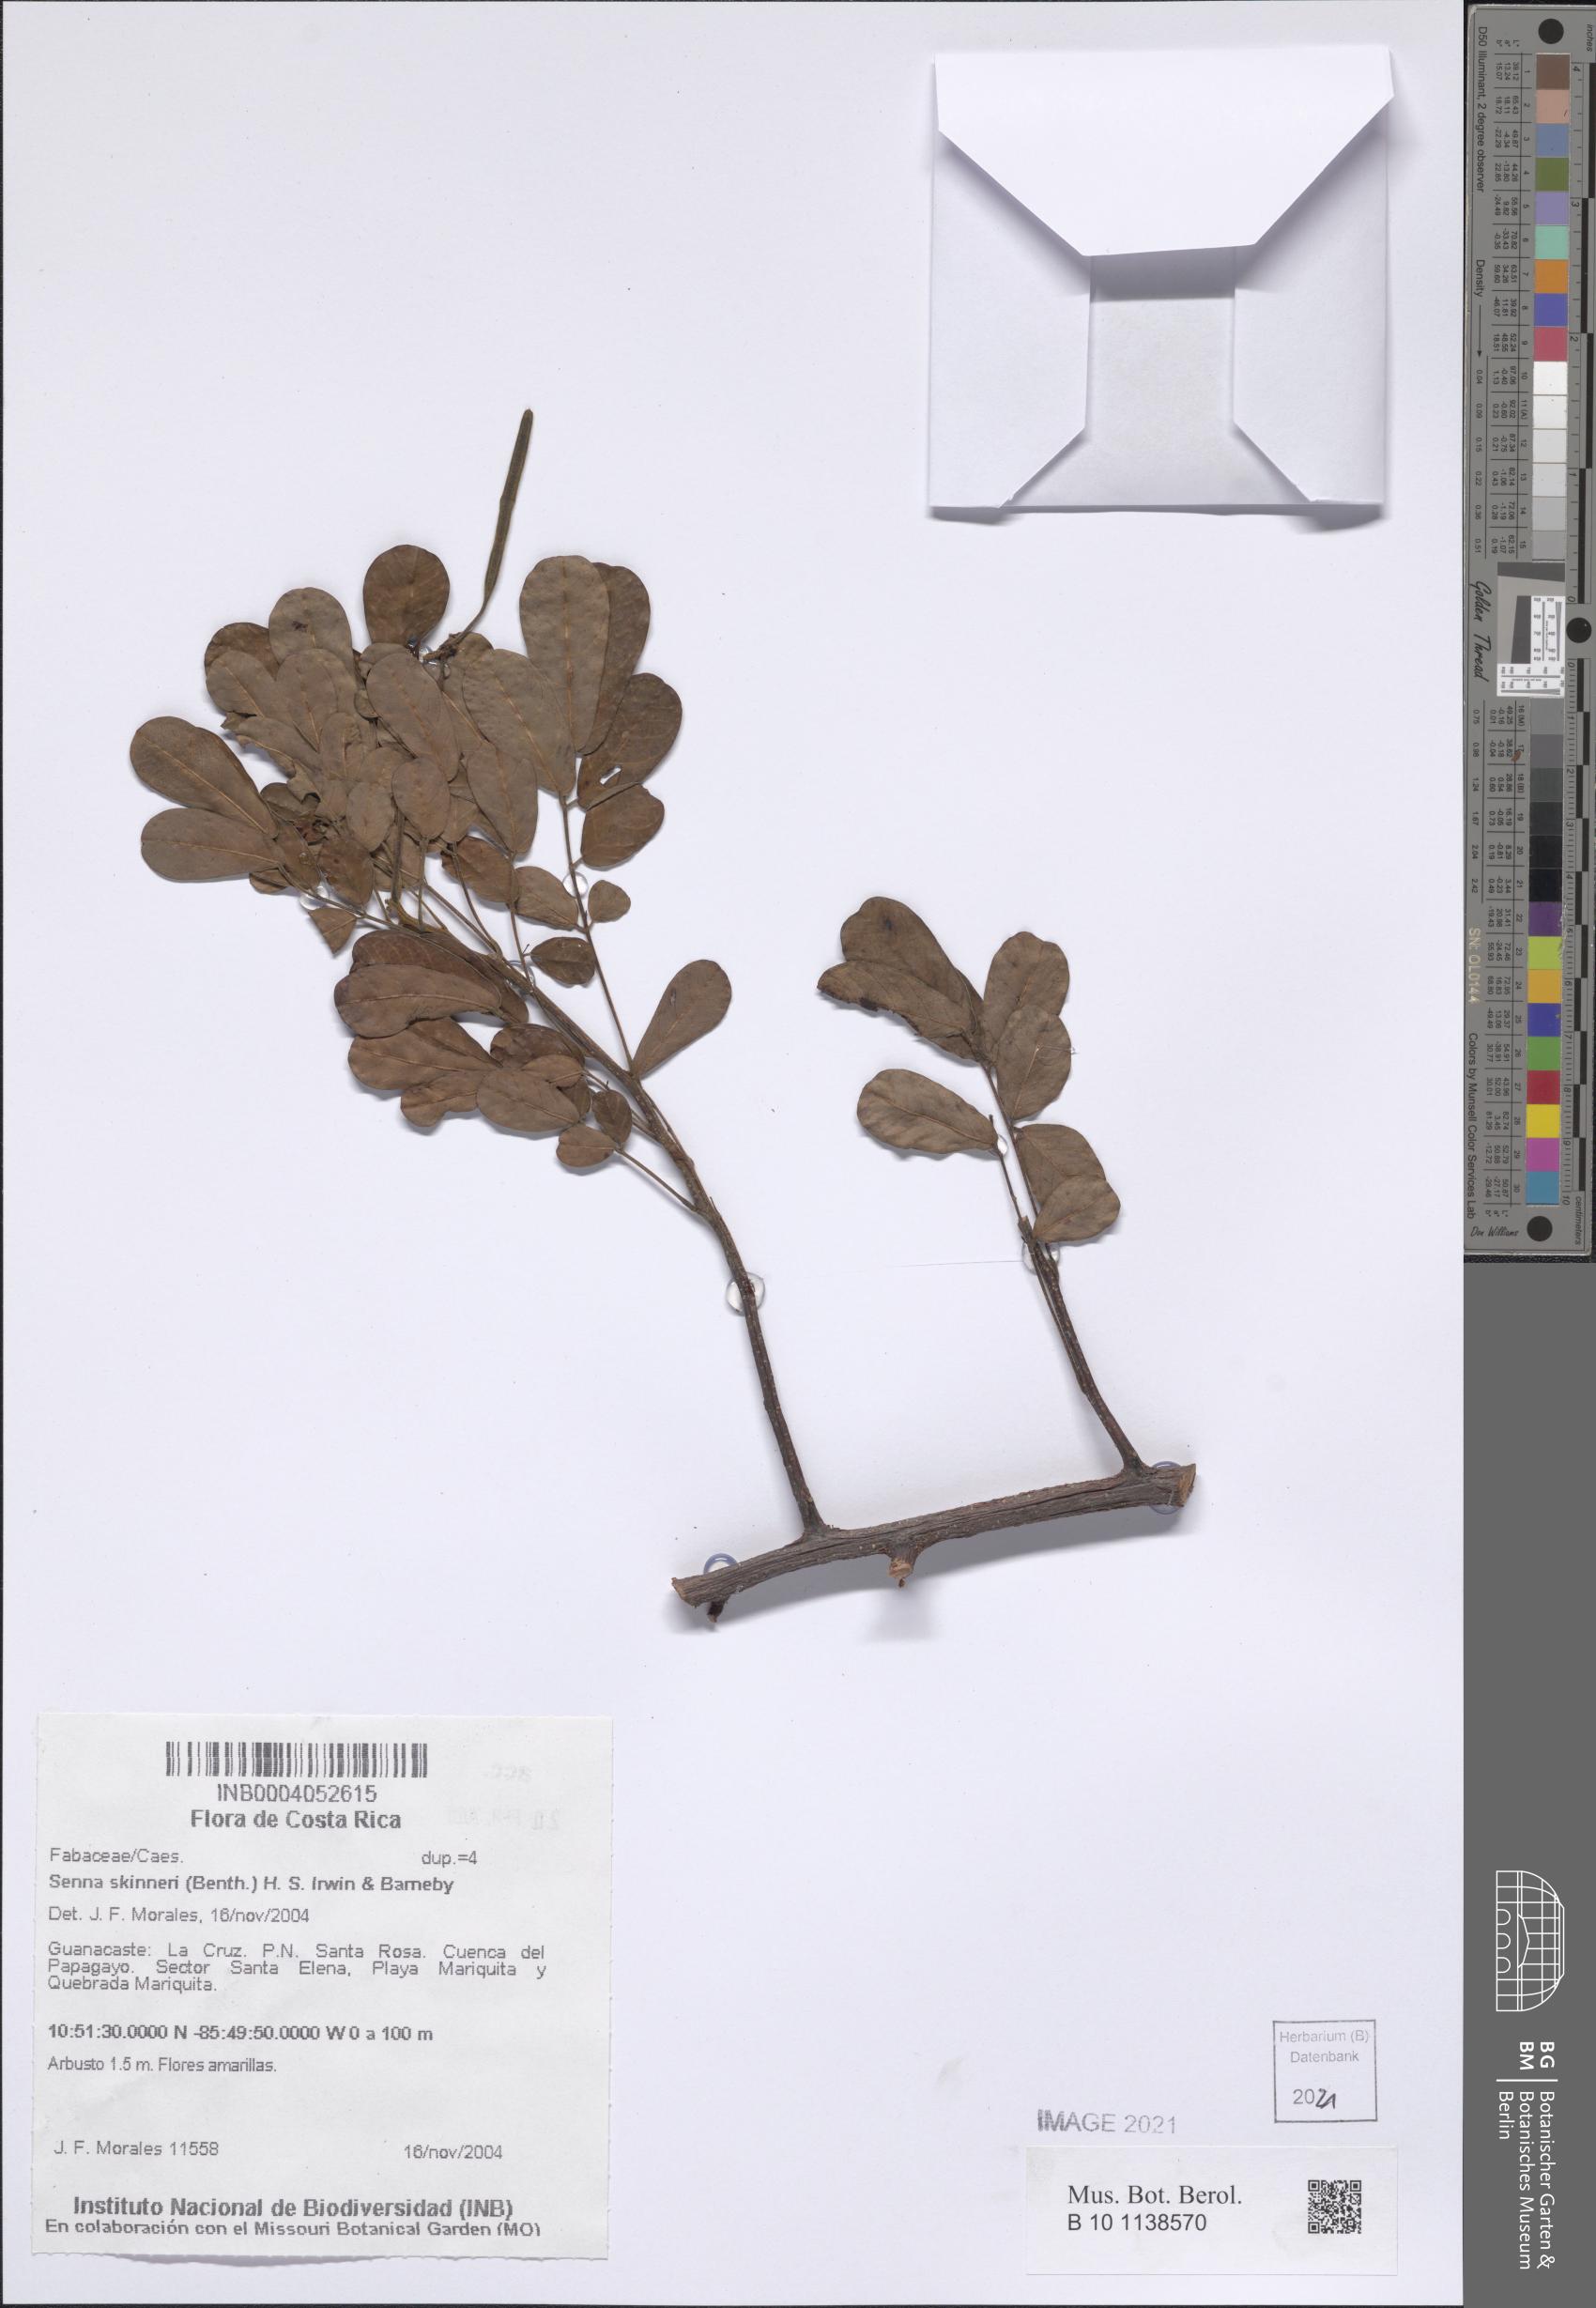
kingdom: Plantae
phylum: Tracheophyta
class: Magnoliopsida
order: Fabales
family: Fabaceae
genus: Senna
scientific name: Senna skinneri
